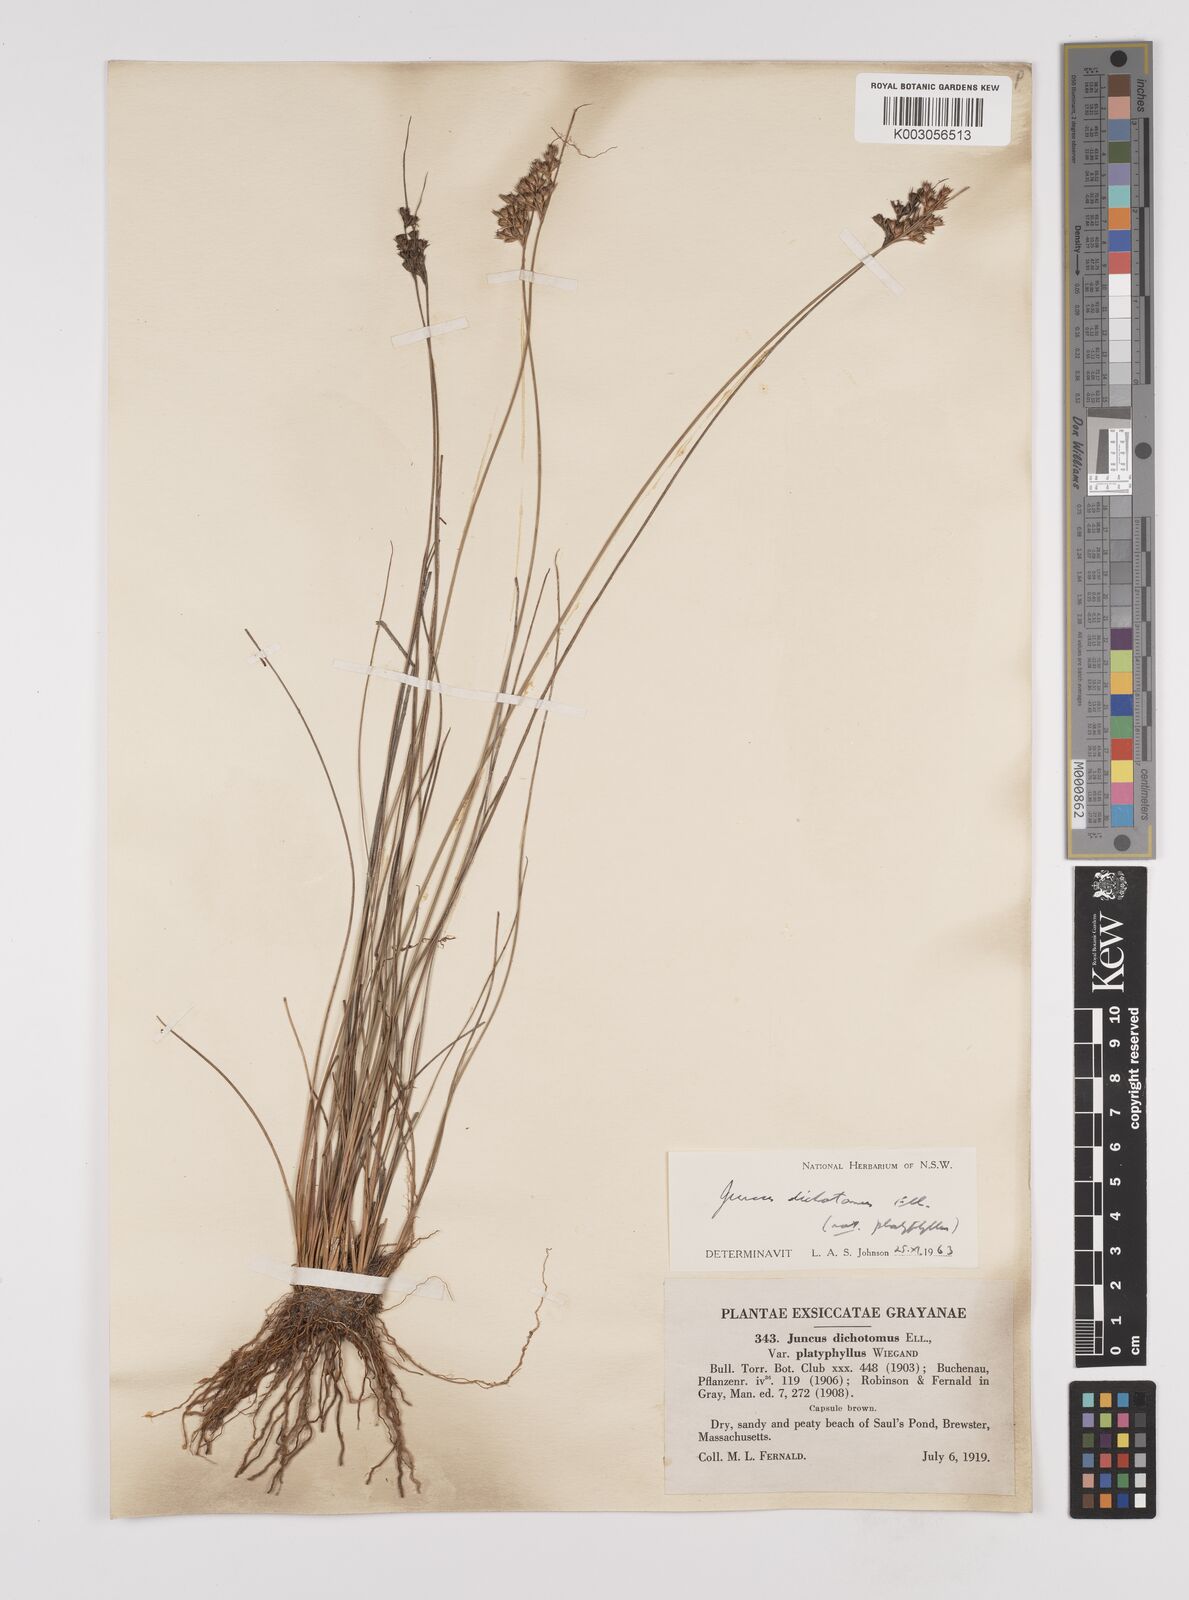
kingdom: Plantae
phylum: Tracheophyta
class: Liliopsida
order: Poales
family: Juncaceae
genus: Juncus
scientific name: Juncus dichotomus
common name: Forked rush
